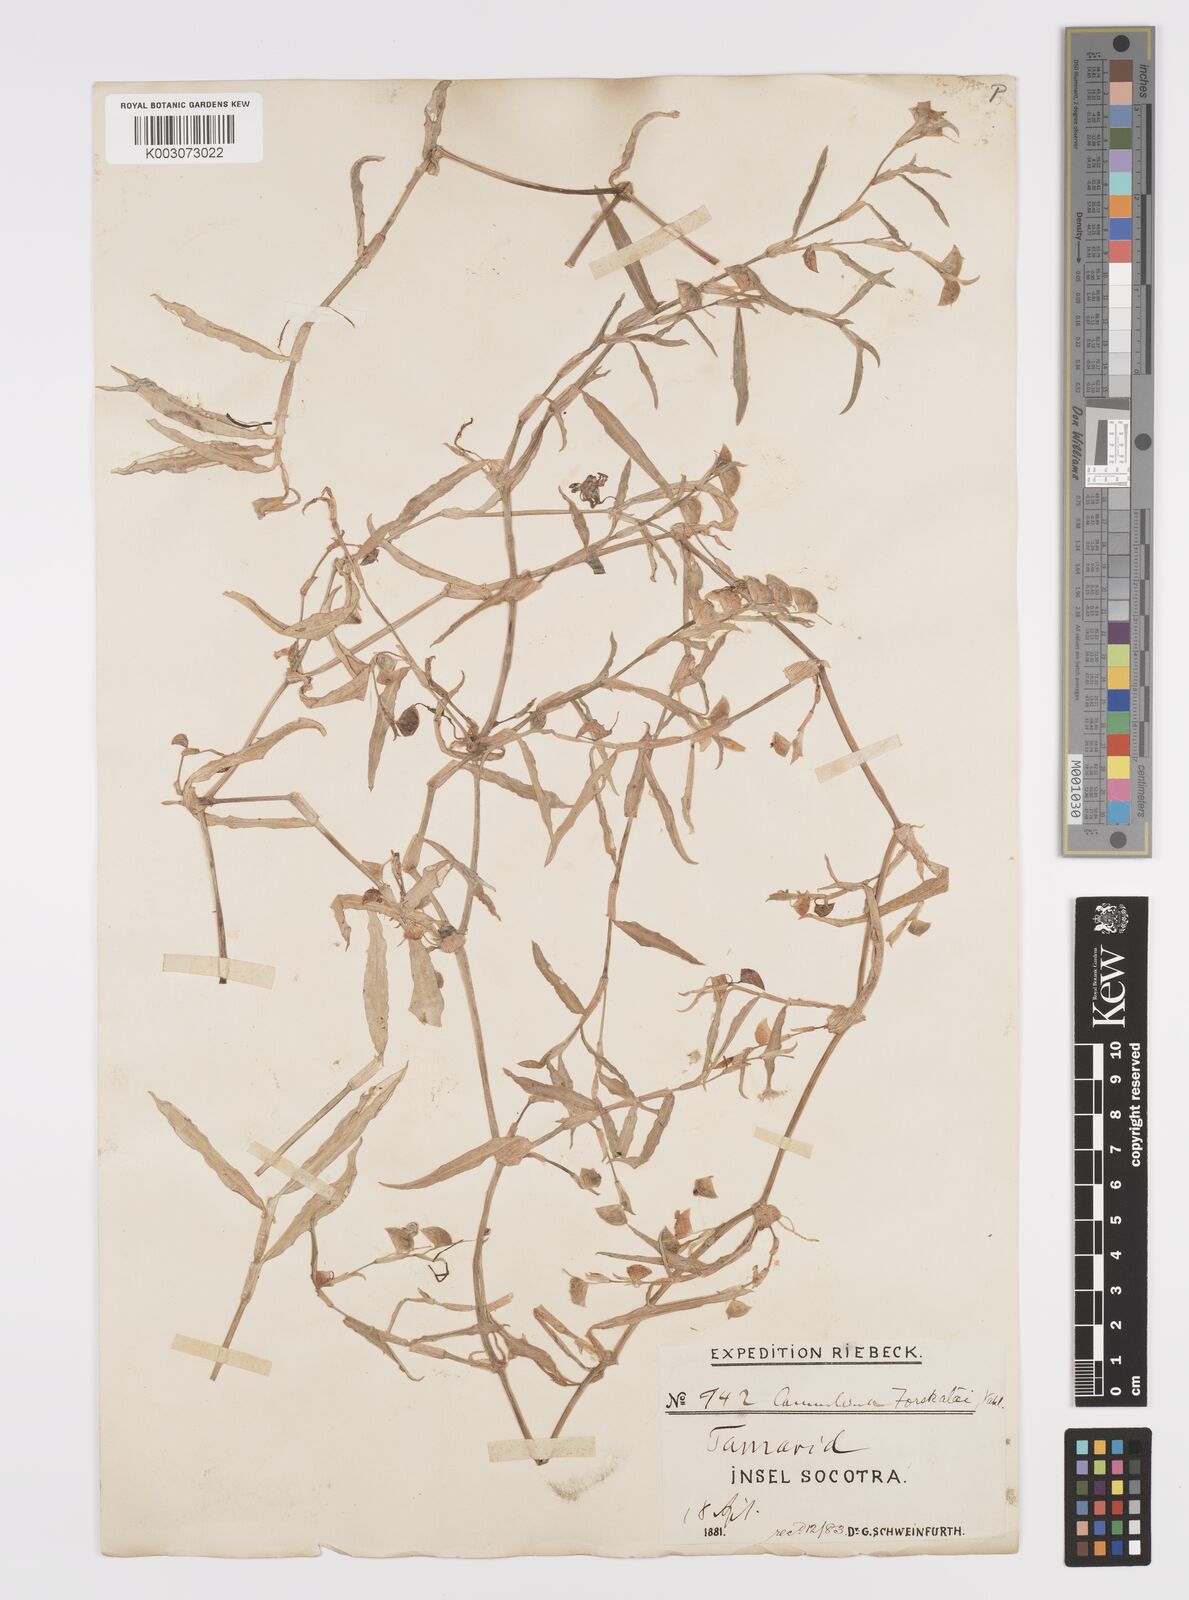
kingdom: Plantae
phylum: Tracheophyta
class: Liliopsida
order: Commelinales
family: Commelinaceae
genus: Commelina
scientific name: Commelina forskaolii
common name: Rat's ear
